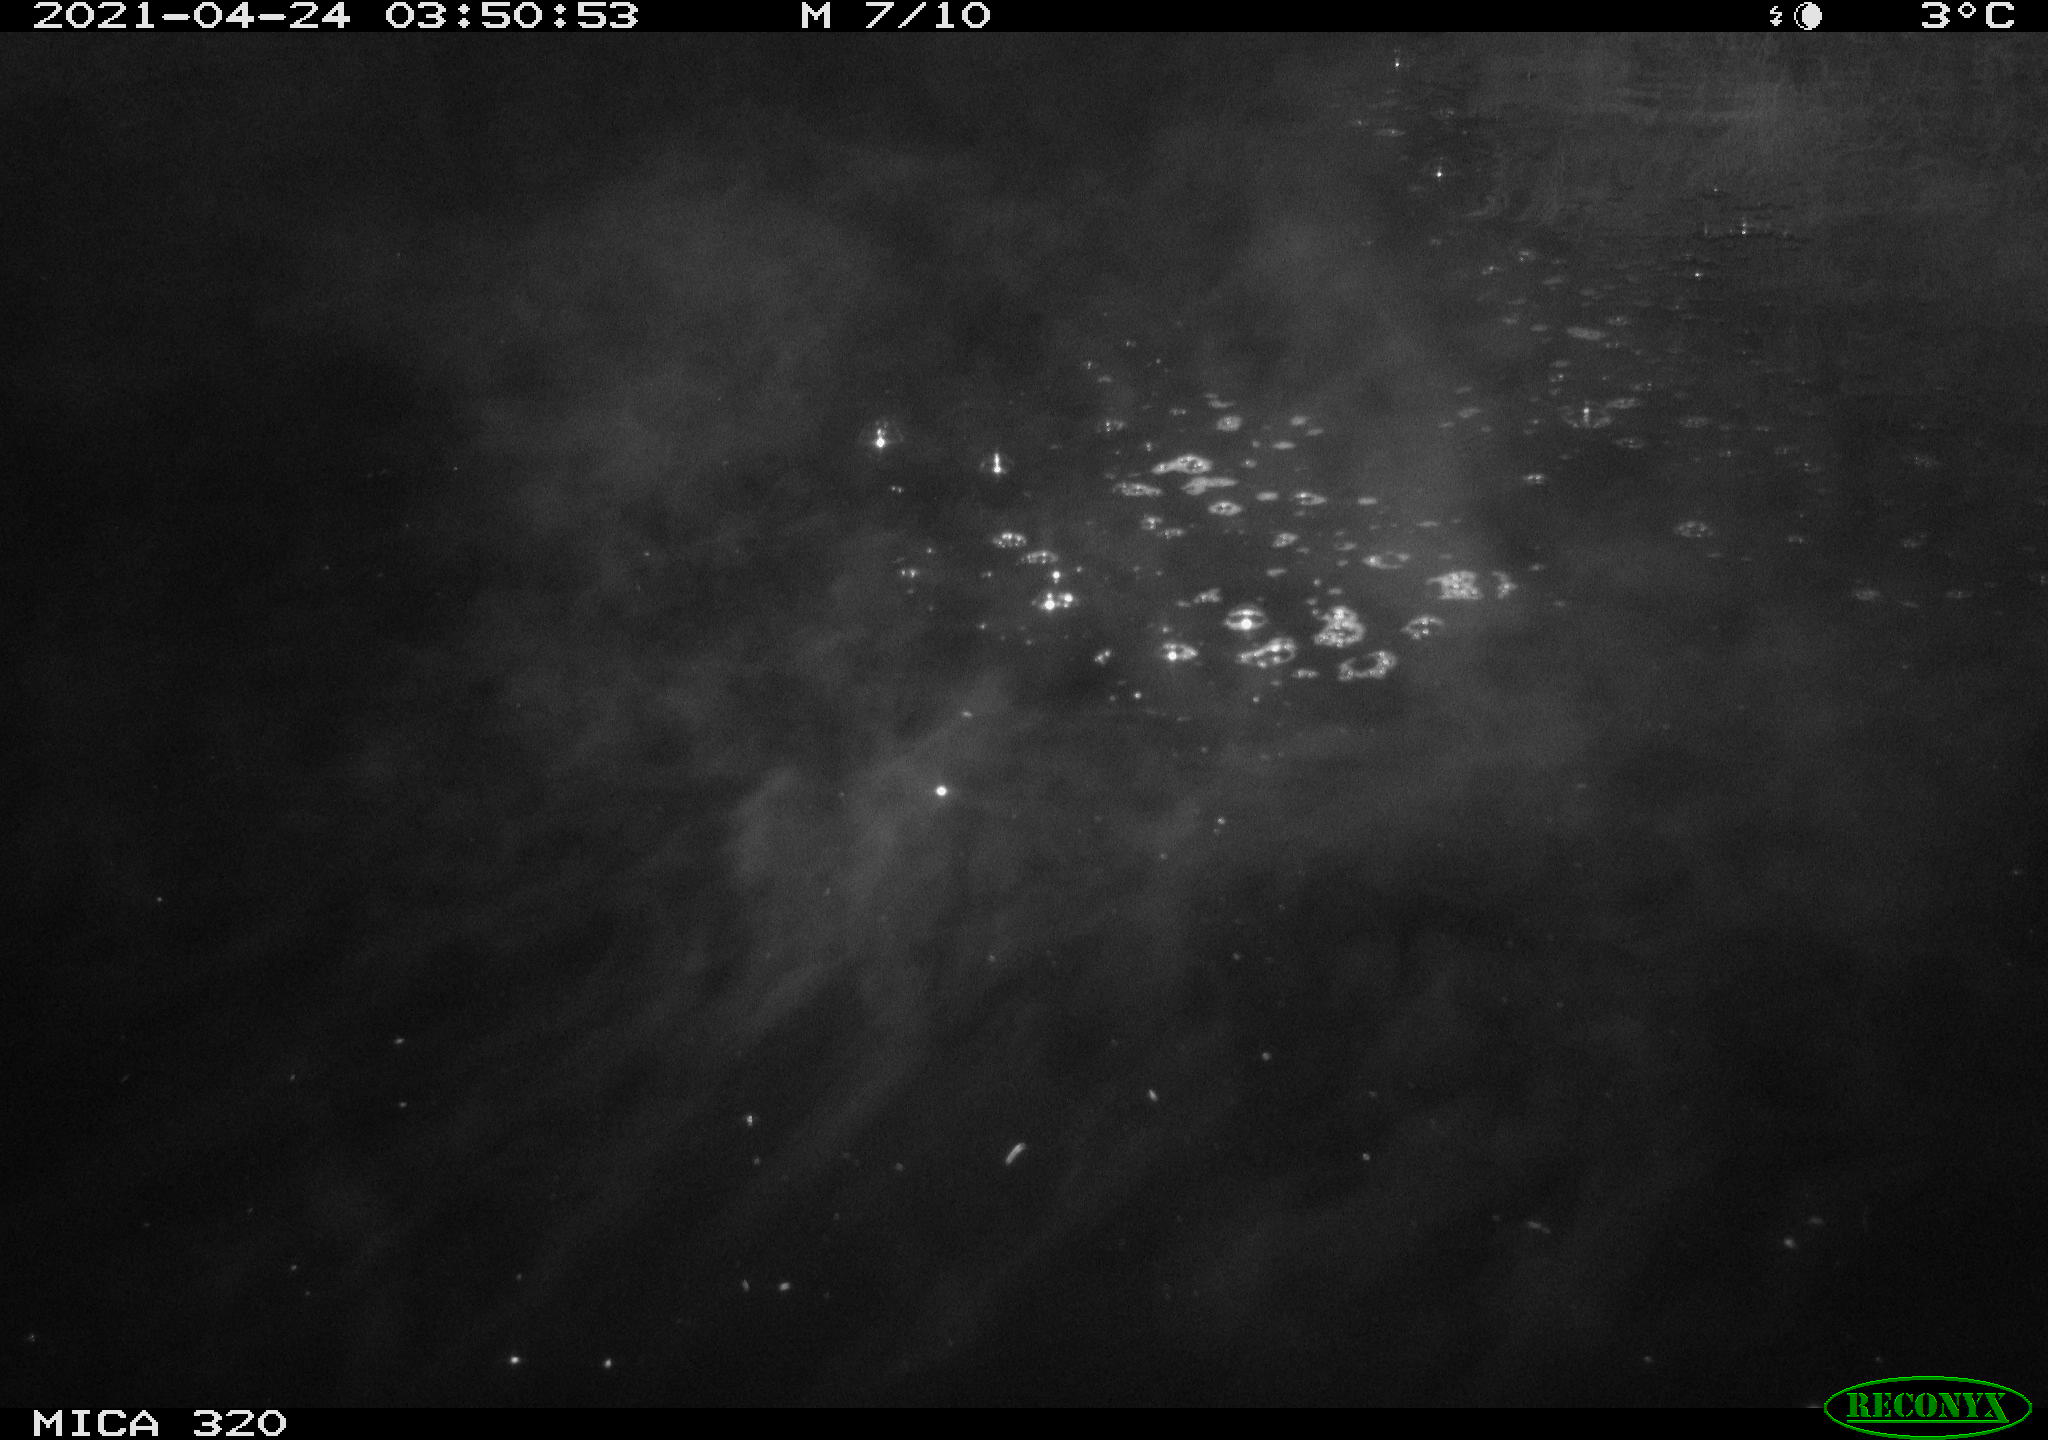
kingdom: Animalia
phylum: Chordata
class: Aves
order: Anseriformes
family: Anatidae
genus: Anas
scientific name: Anas platyrhynchos
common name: Mallard
